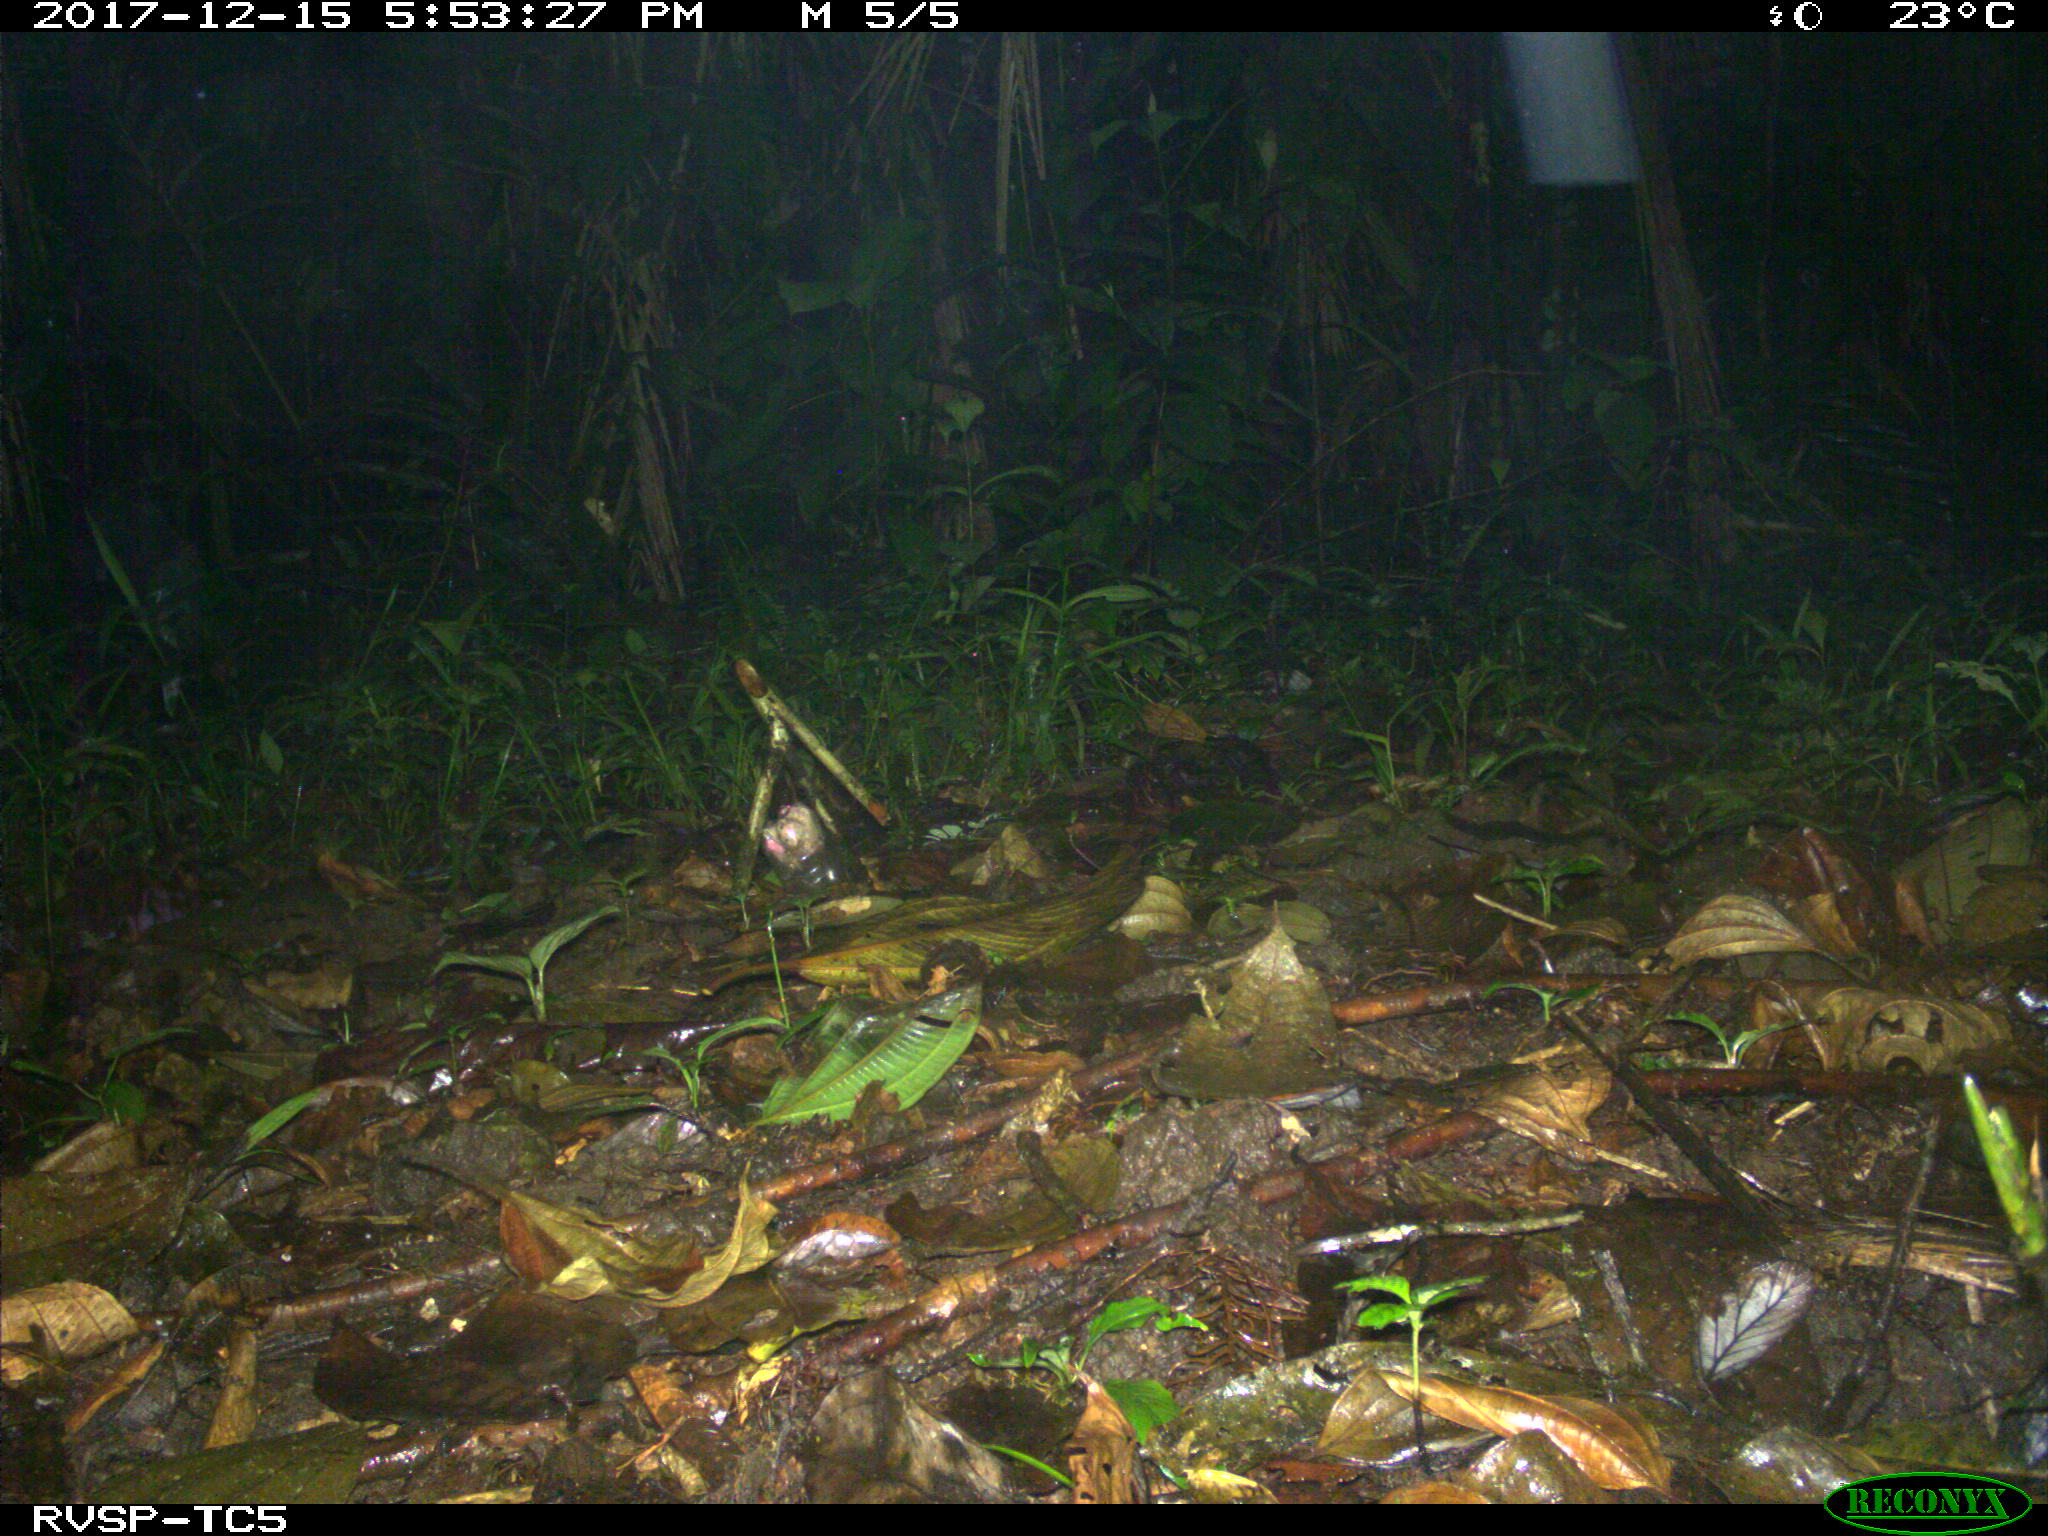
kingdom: Animalia
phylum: Chordata
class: Mammalia
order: Rodentia
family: Dasyproctidae
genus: Dasyprocta
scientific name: Dasyprocta punctata
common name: Central american agouti
